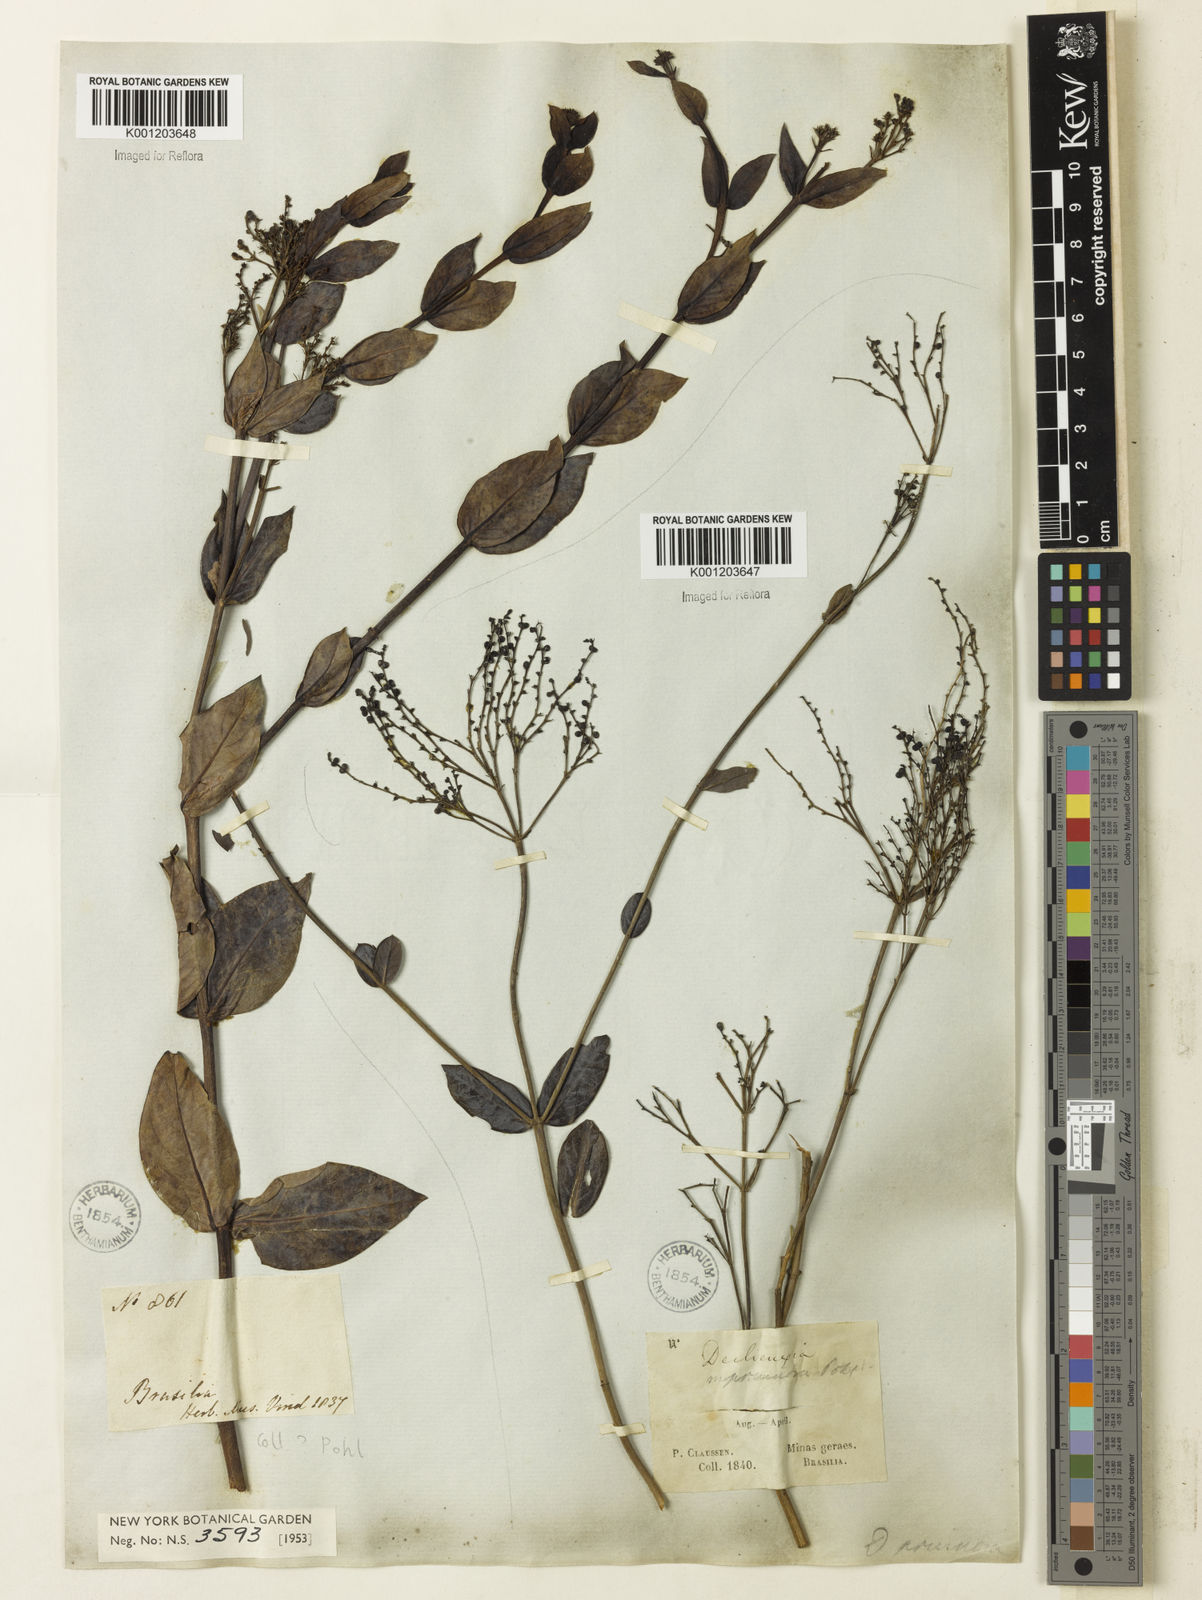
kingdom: Plantae
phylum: Tracheophyta
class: Magnoliopsida
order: Gentianales
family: Rubiaceae
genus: Declieuxia
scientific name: Declieuxia pruinosa
